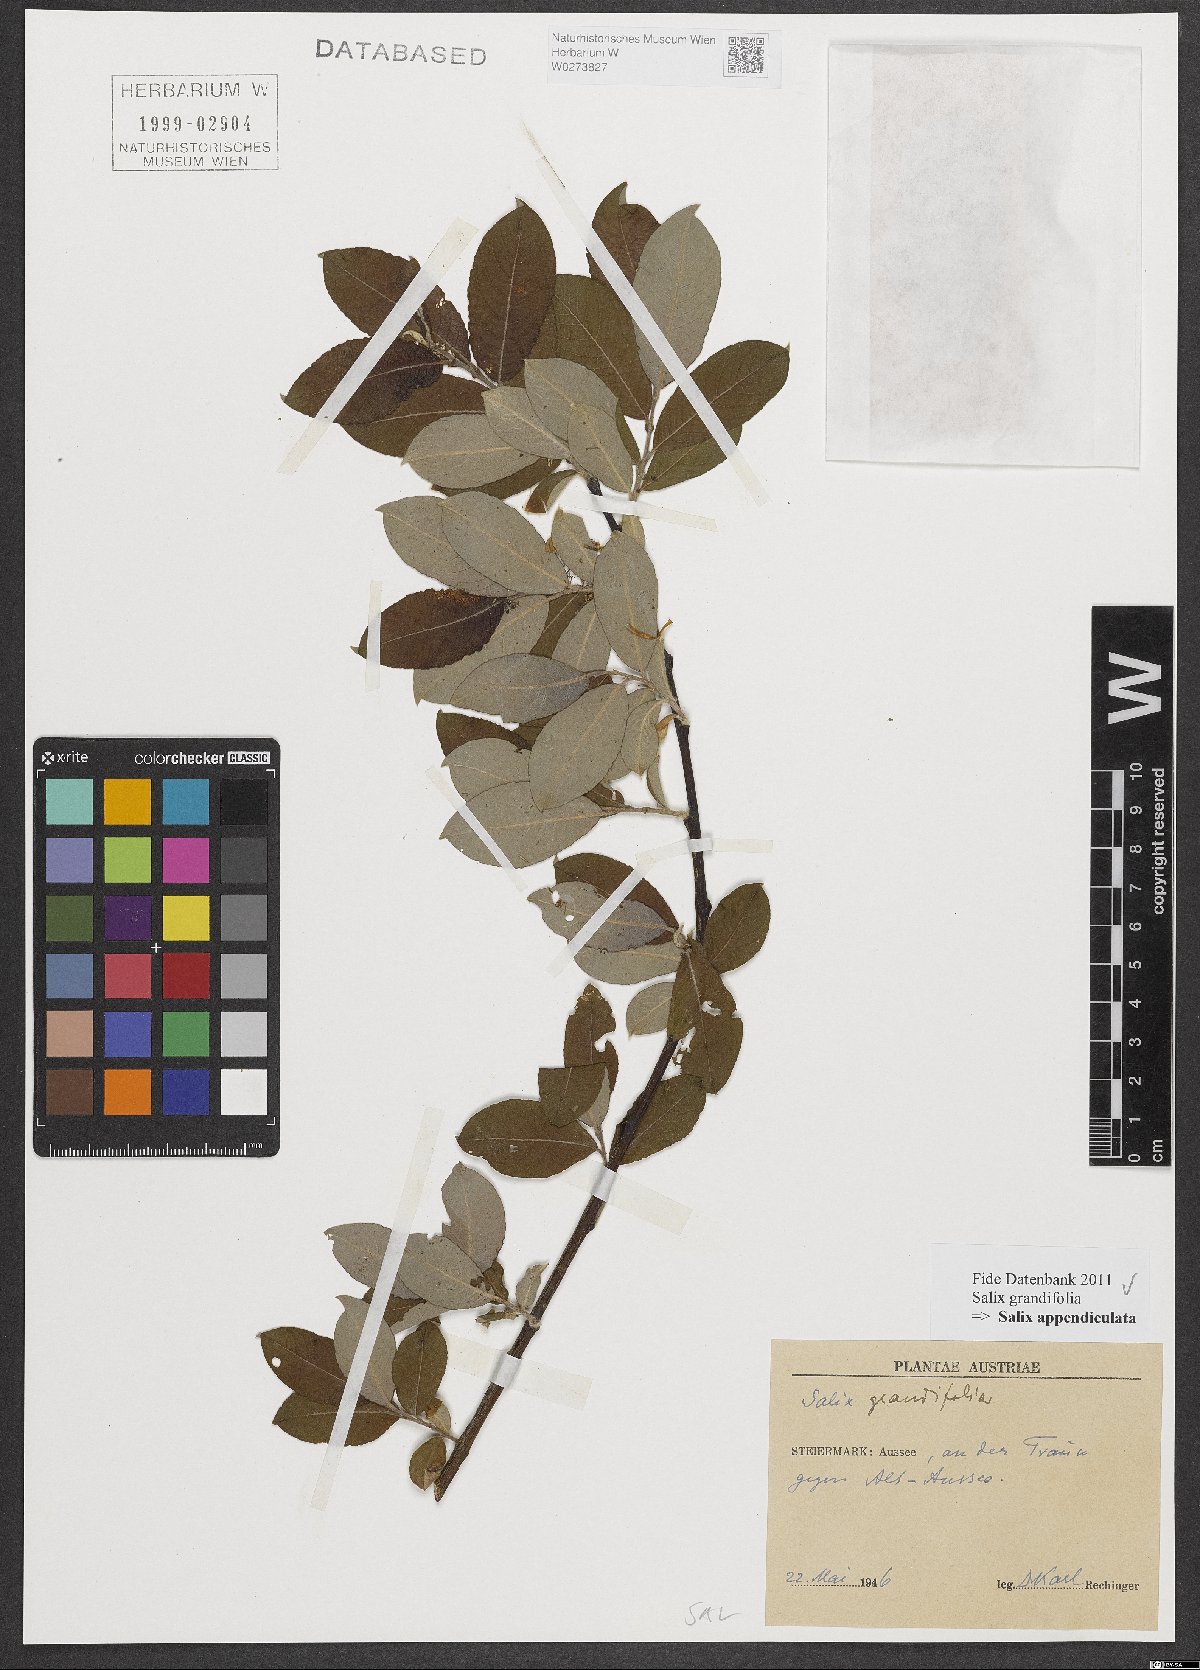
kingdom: Plantae
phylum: Tracheophyta
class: Magnoliopsida
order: Malpighiales
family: Salicaceae
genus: Salix
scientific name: Salix appendiculata
